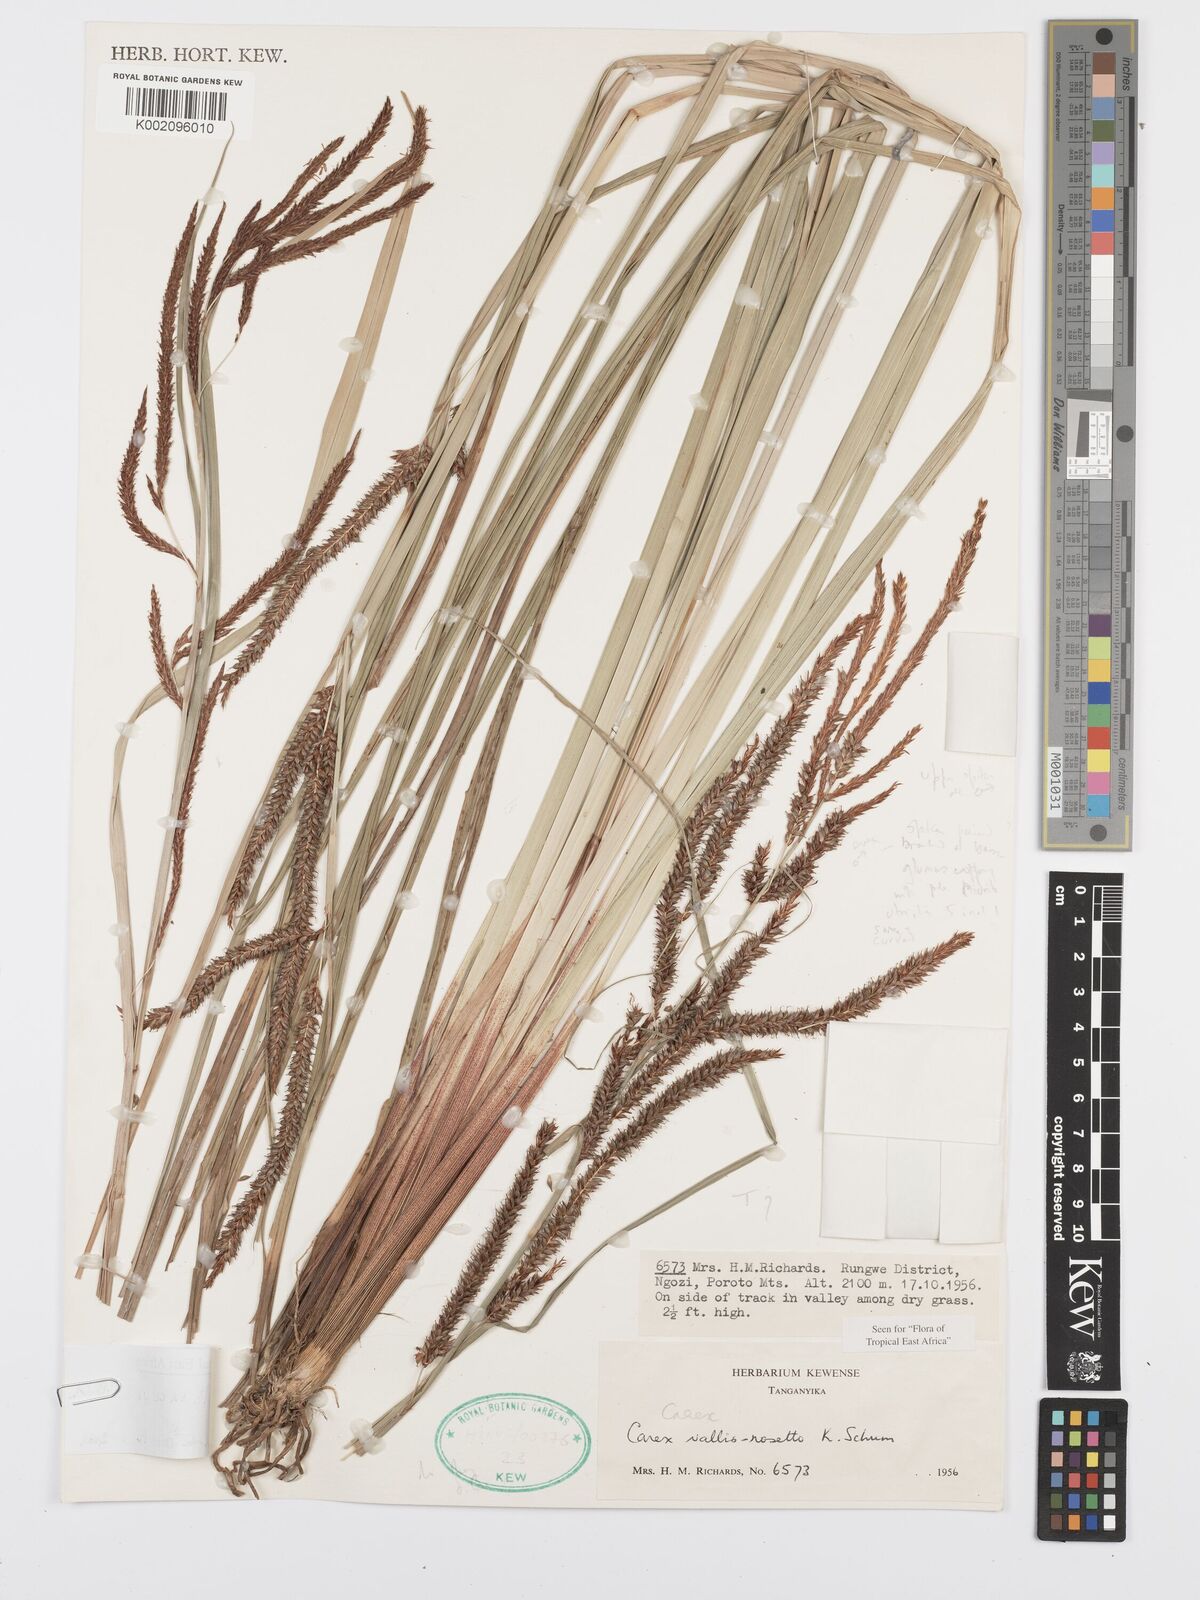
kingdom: Plantae
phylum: Tracheophyta
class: Liliopsida
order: Poales
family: Cyperaceae
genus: Carex
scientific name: Carex vallis-rosetto
